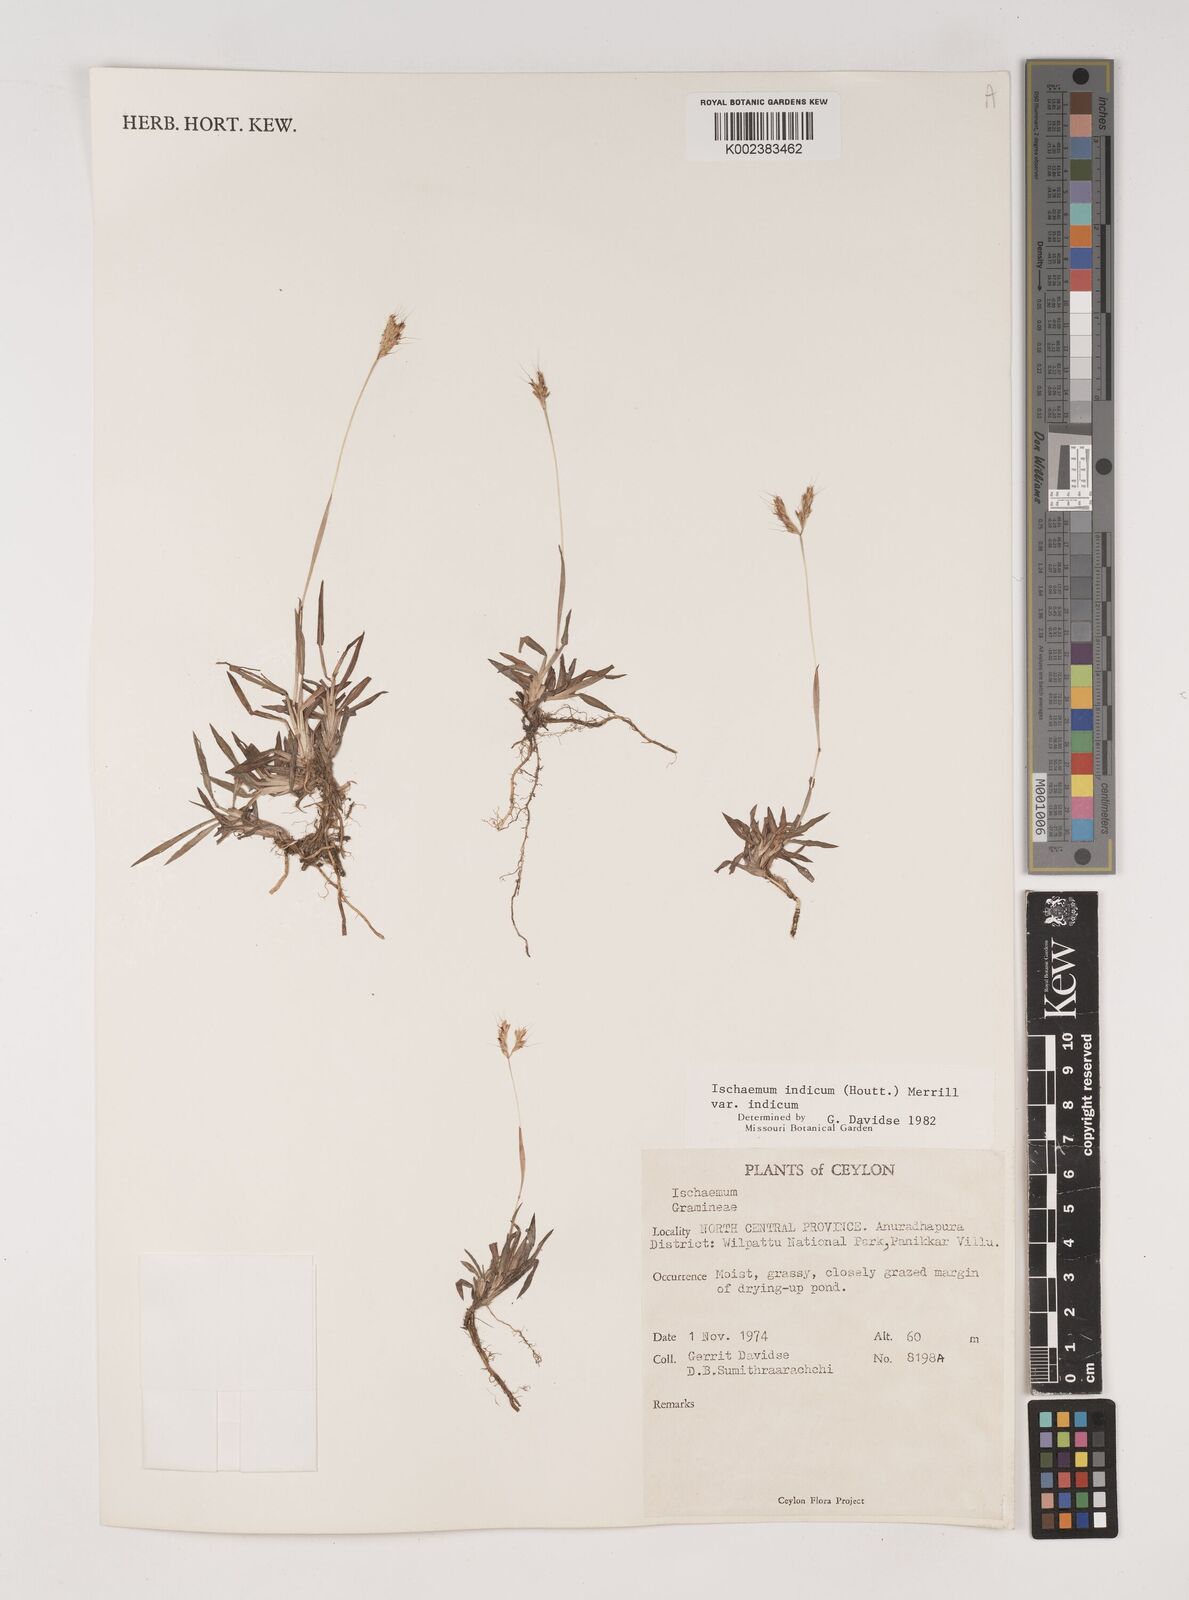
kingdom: Plantae
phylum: Tracheophyta
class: Liliopsida
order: Poales
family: Poaceae
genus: Polytrias
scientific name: Polytrias indica
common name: Indian murainagrass
